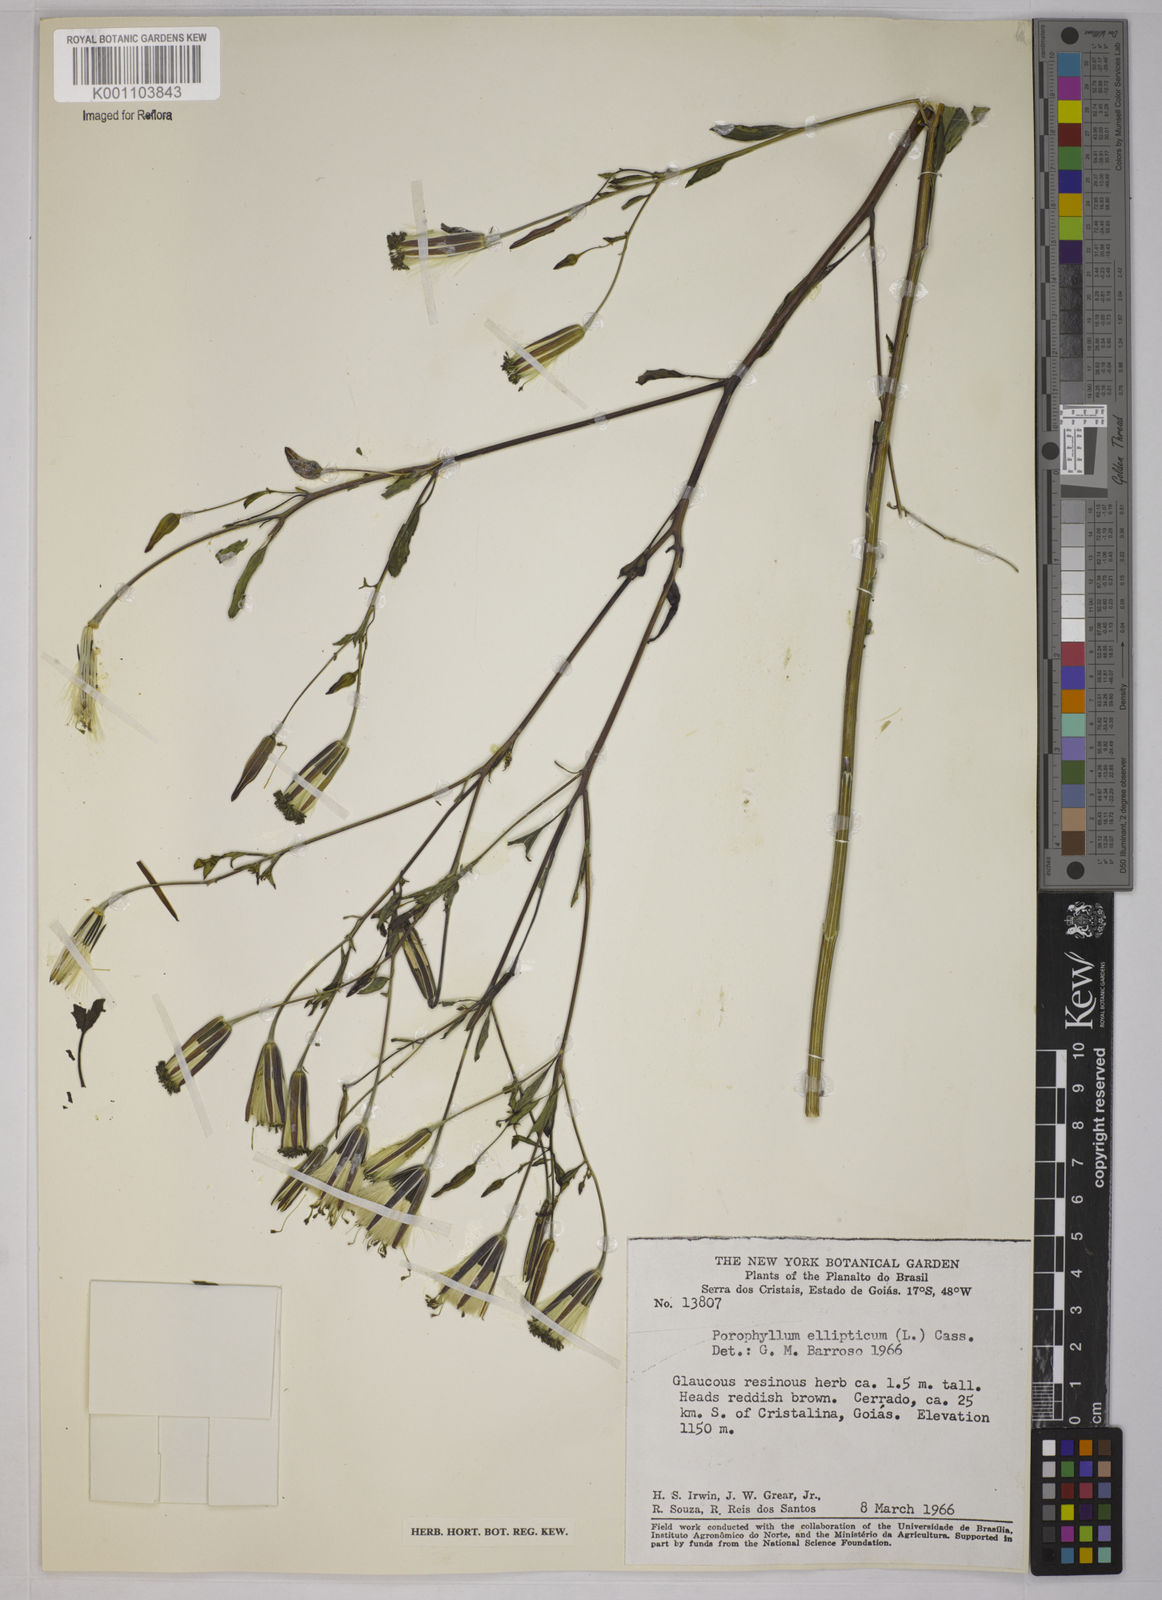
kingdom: Plantae
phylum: Tracheophyta
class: Magnoliopsida
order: Asterales
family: Asteraceae
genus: Porophyllum
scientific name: Porophyllum ruderale
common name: Yerba porosa
